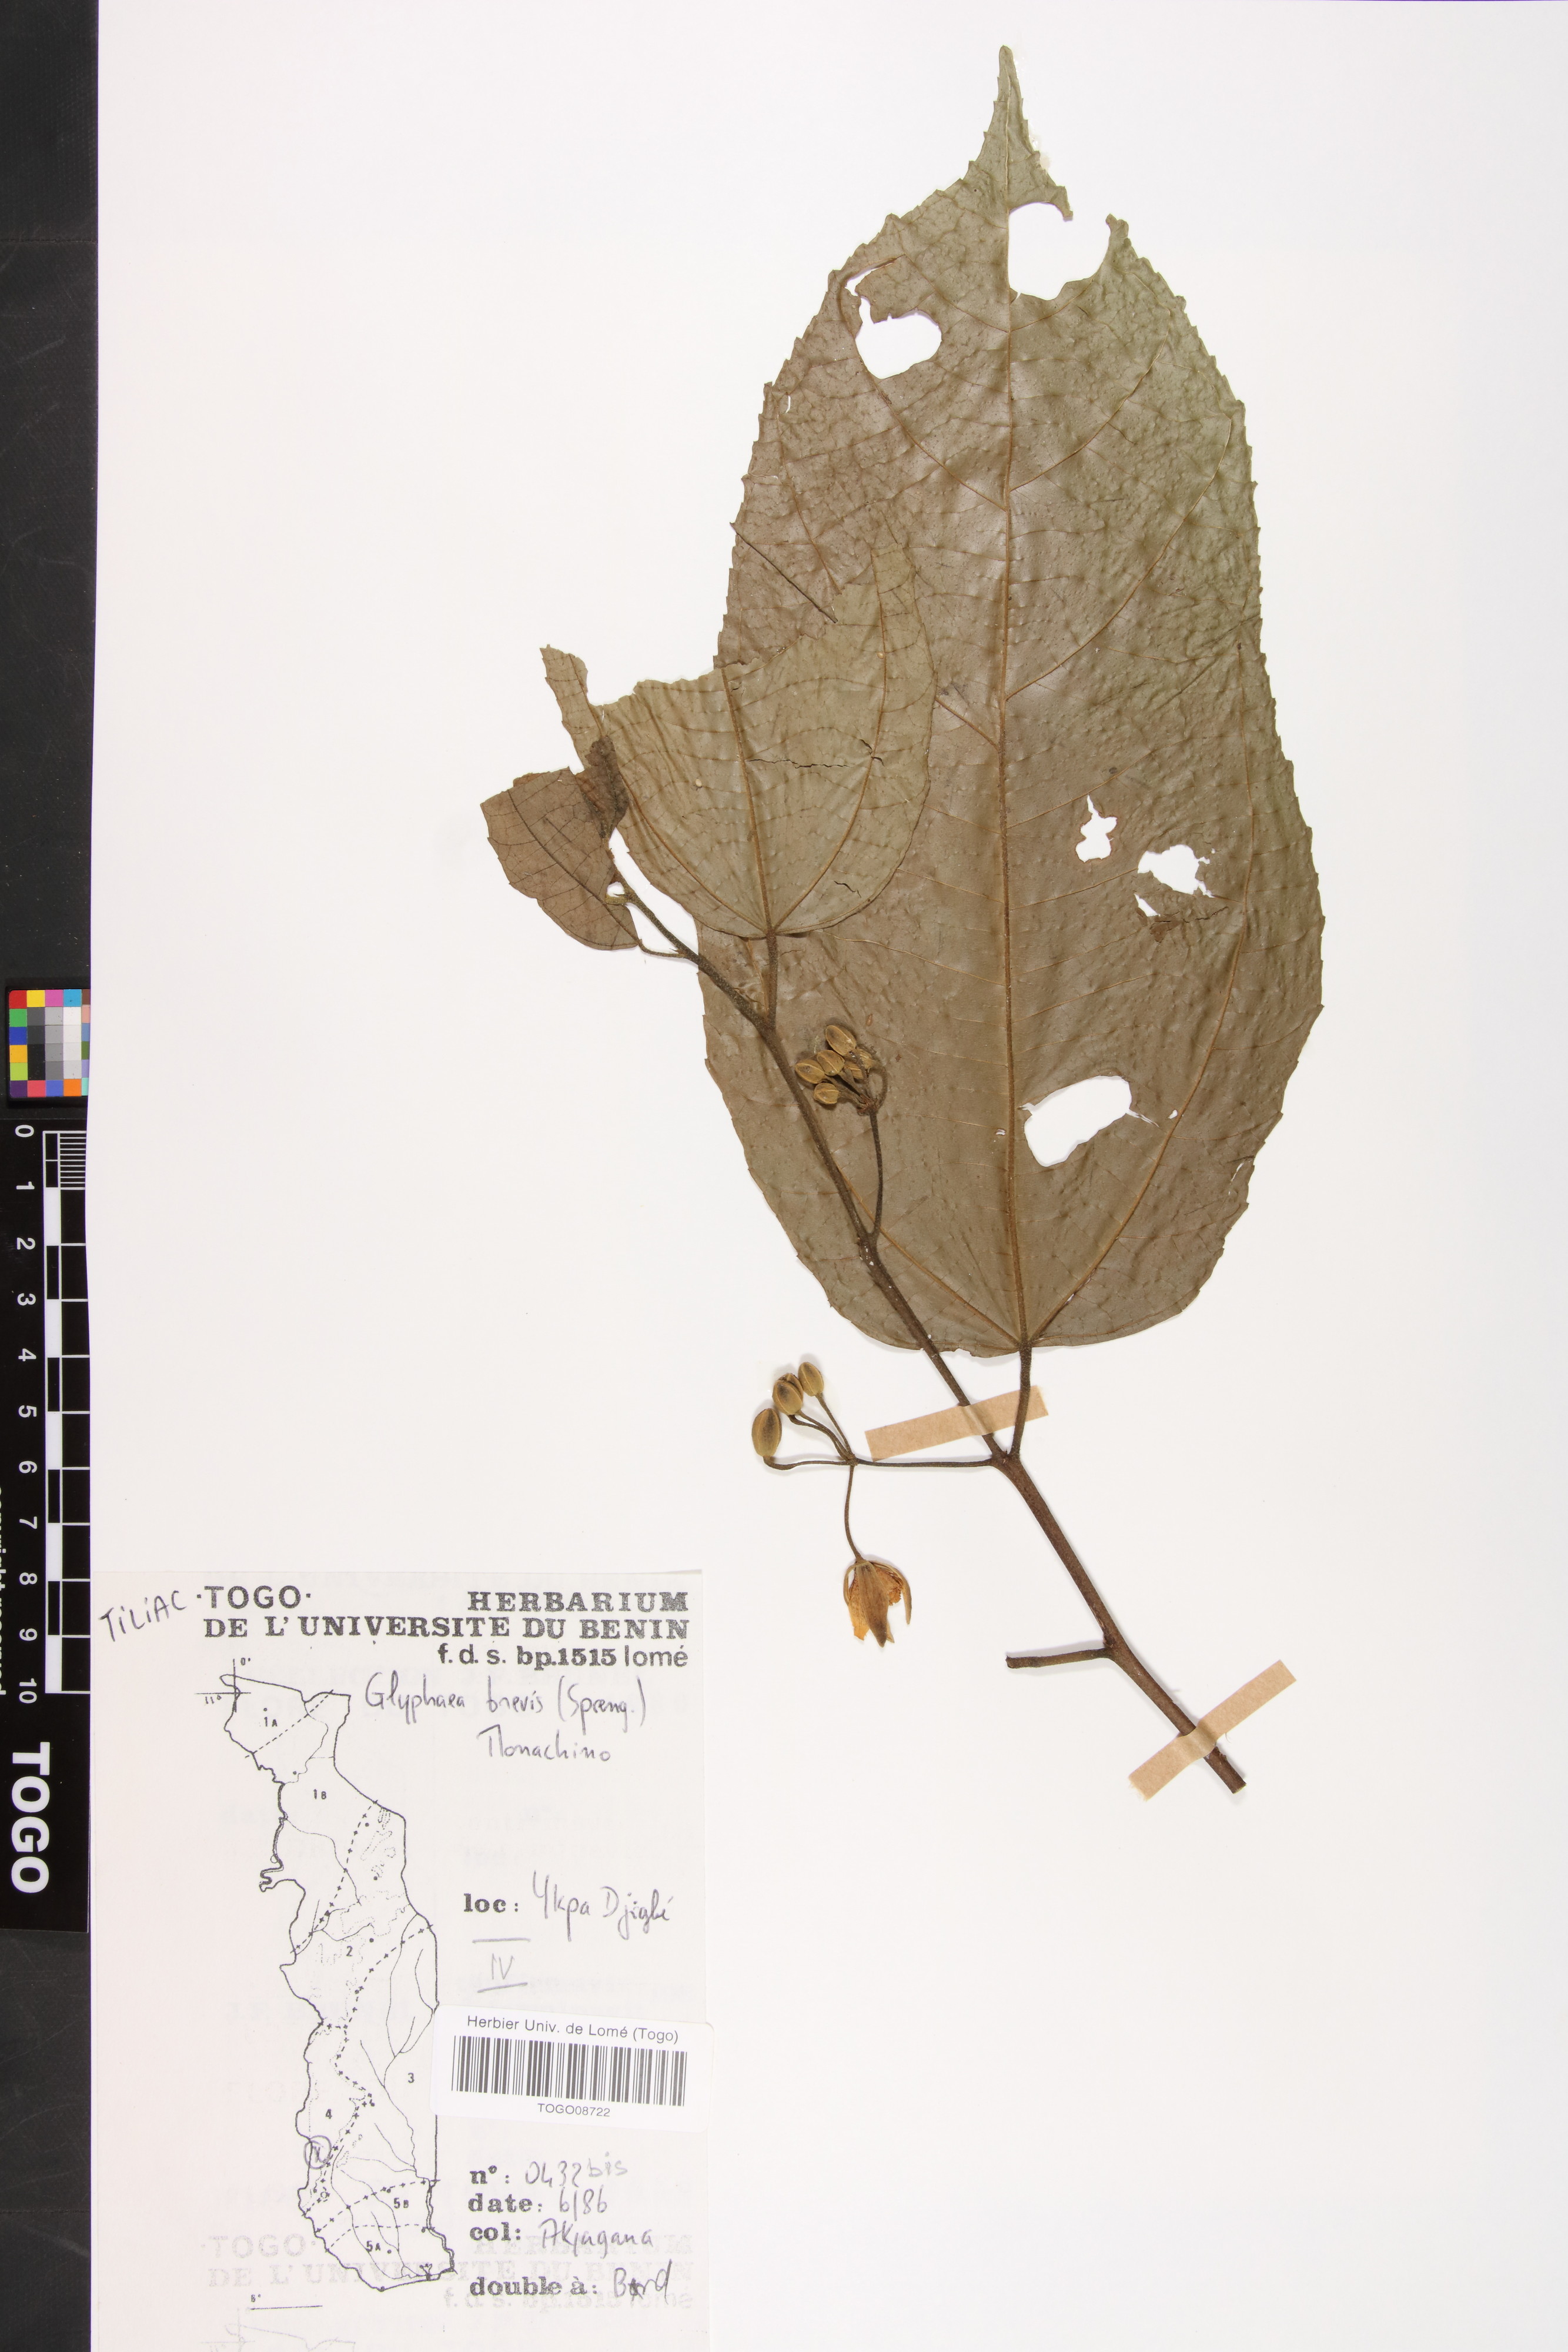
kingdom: Plantae
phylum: Tracheophyta
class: Magnoliopsida
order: Malvales
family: Malvaceae
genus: Glyphaea
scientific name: Glyphaea brevis
